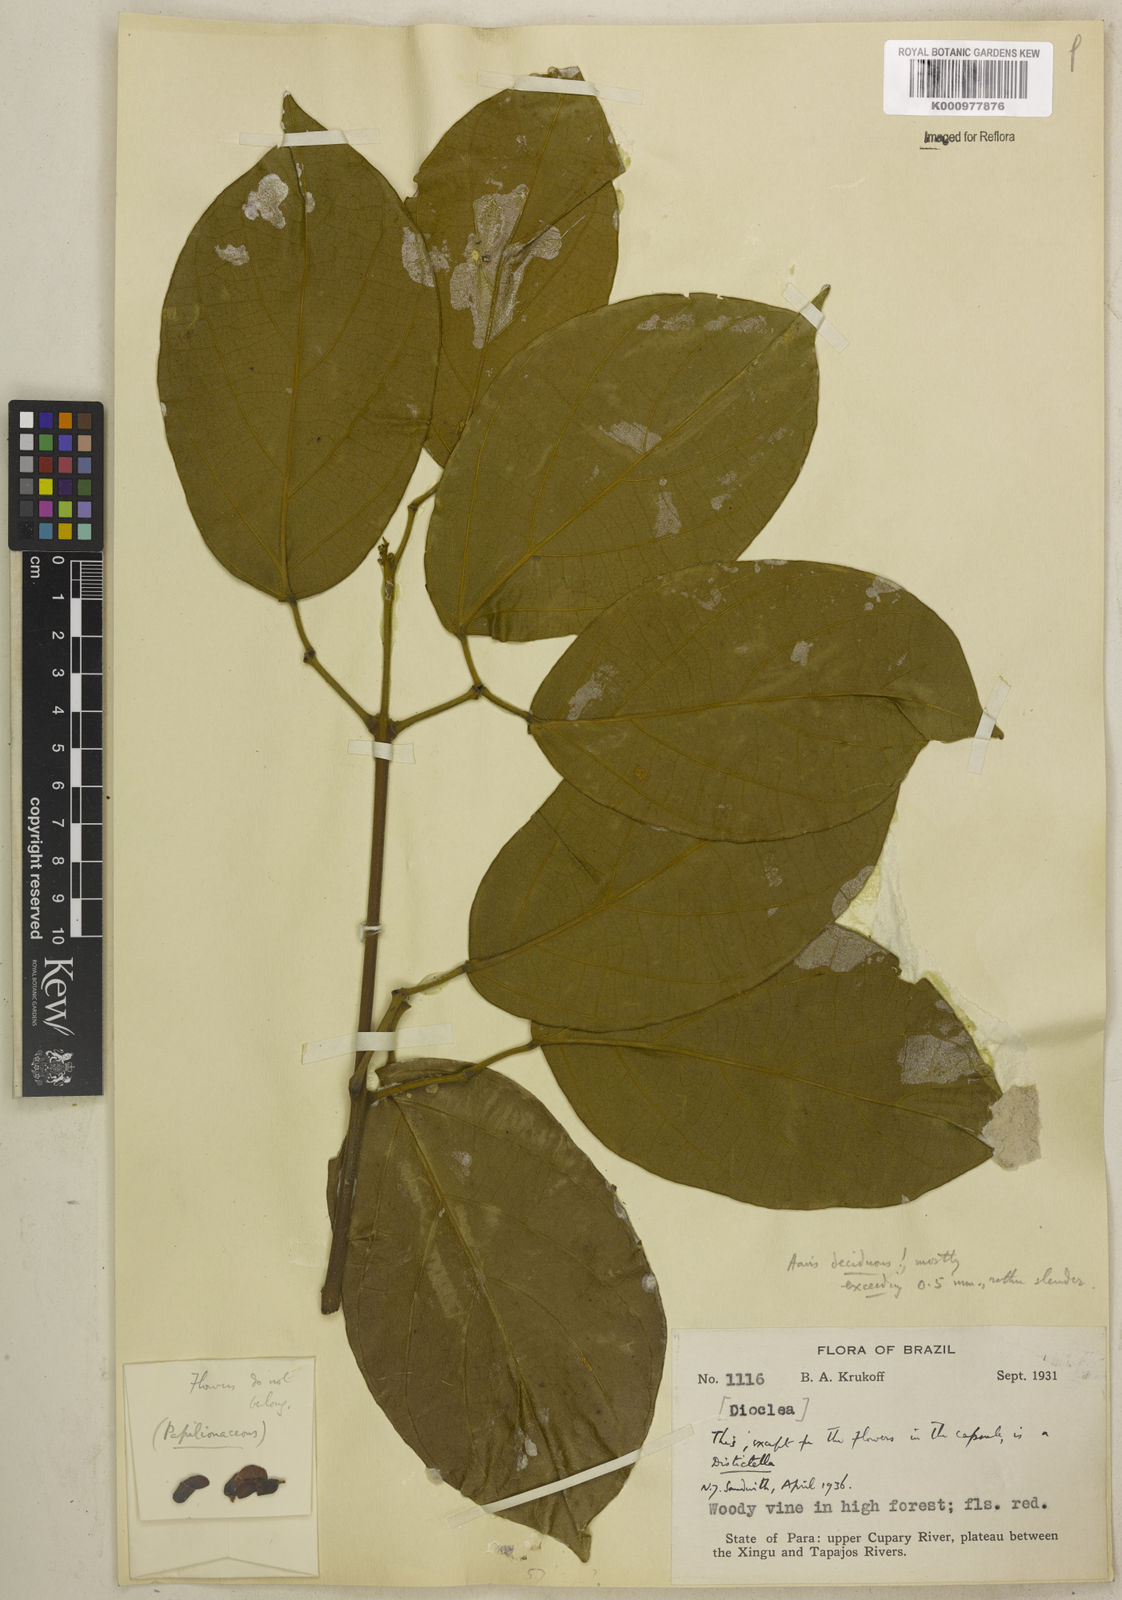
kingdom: Plantae
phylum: Tracheophyta
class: Magnoliopsida
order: Lamiales
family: Bignoniaceae
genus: Amphilophium
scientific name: Amphilophium racemosum
